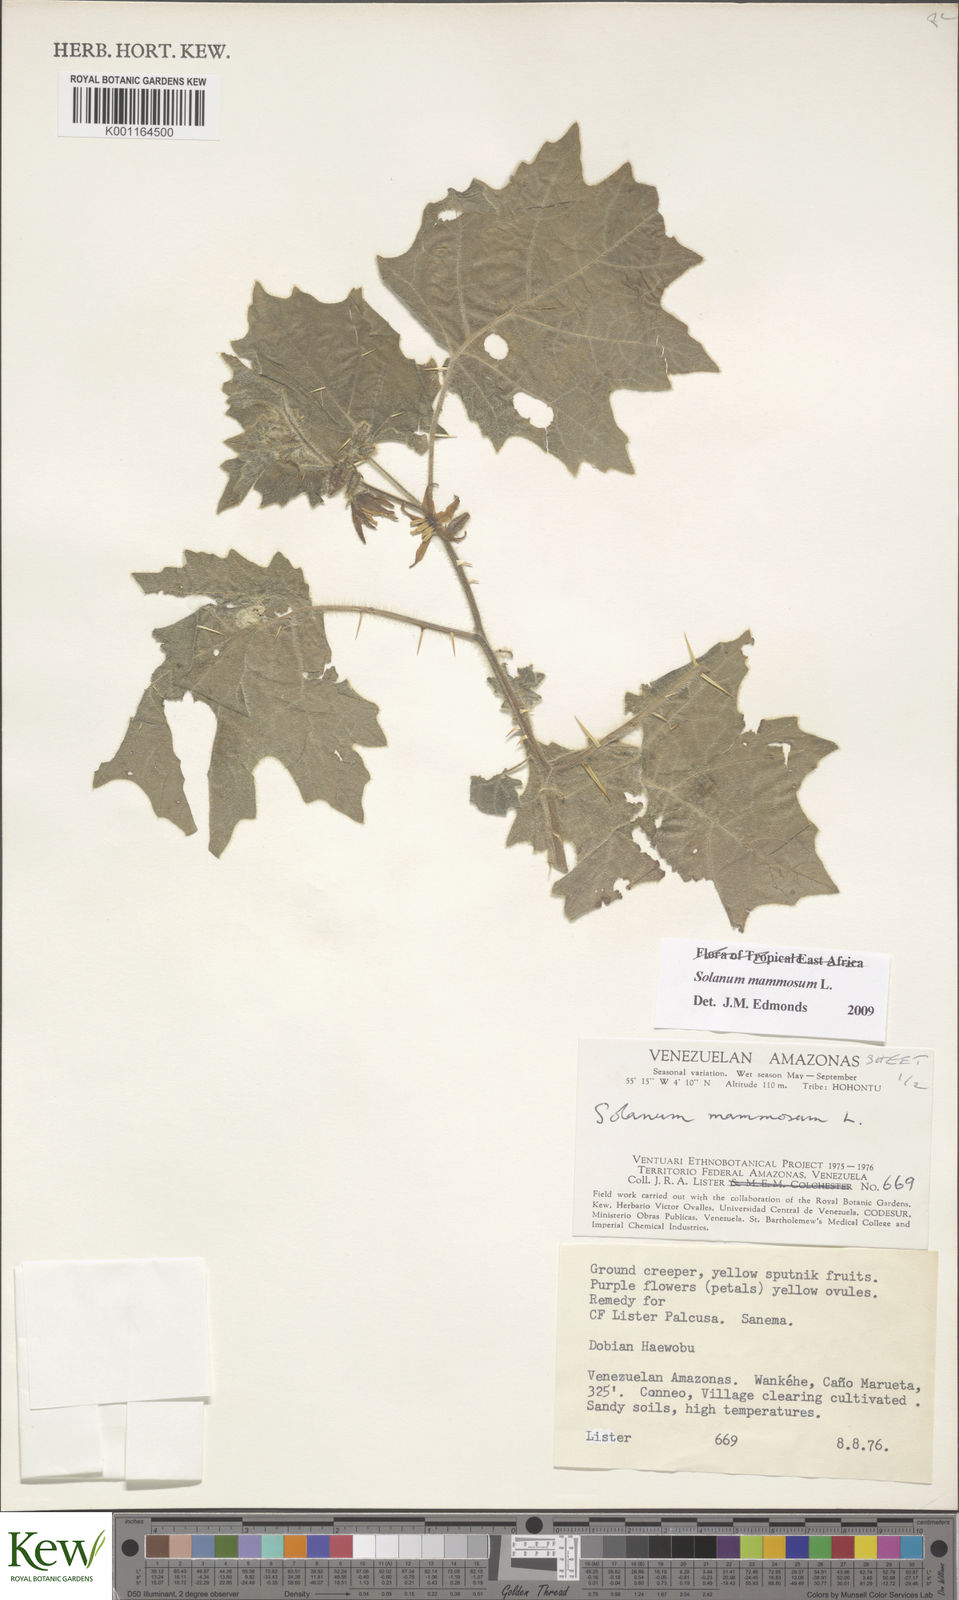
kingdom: Plantae
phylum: Tracheophyta
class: Magnoliopsida
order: Solanales
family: Solanaceae
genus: Solanum
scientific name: Solanum mammosum
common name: Nipple fruit
